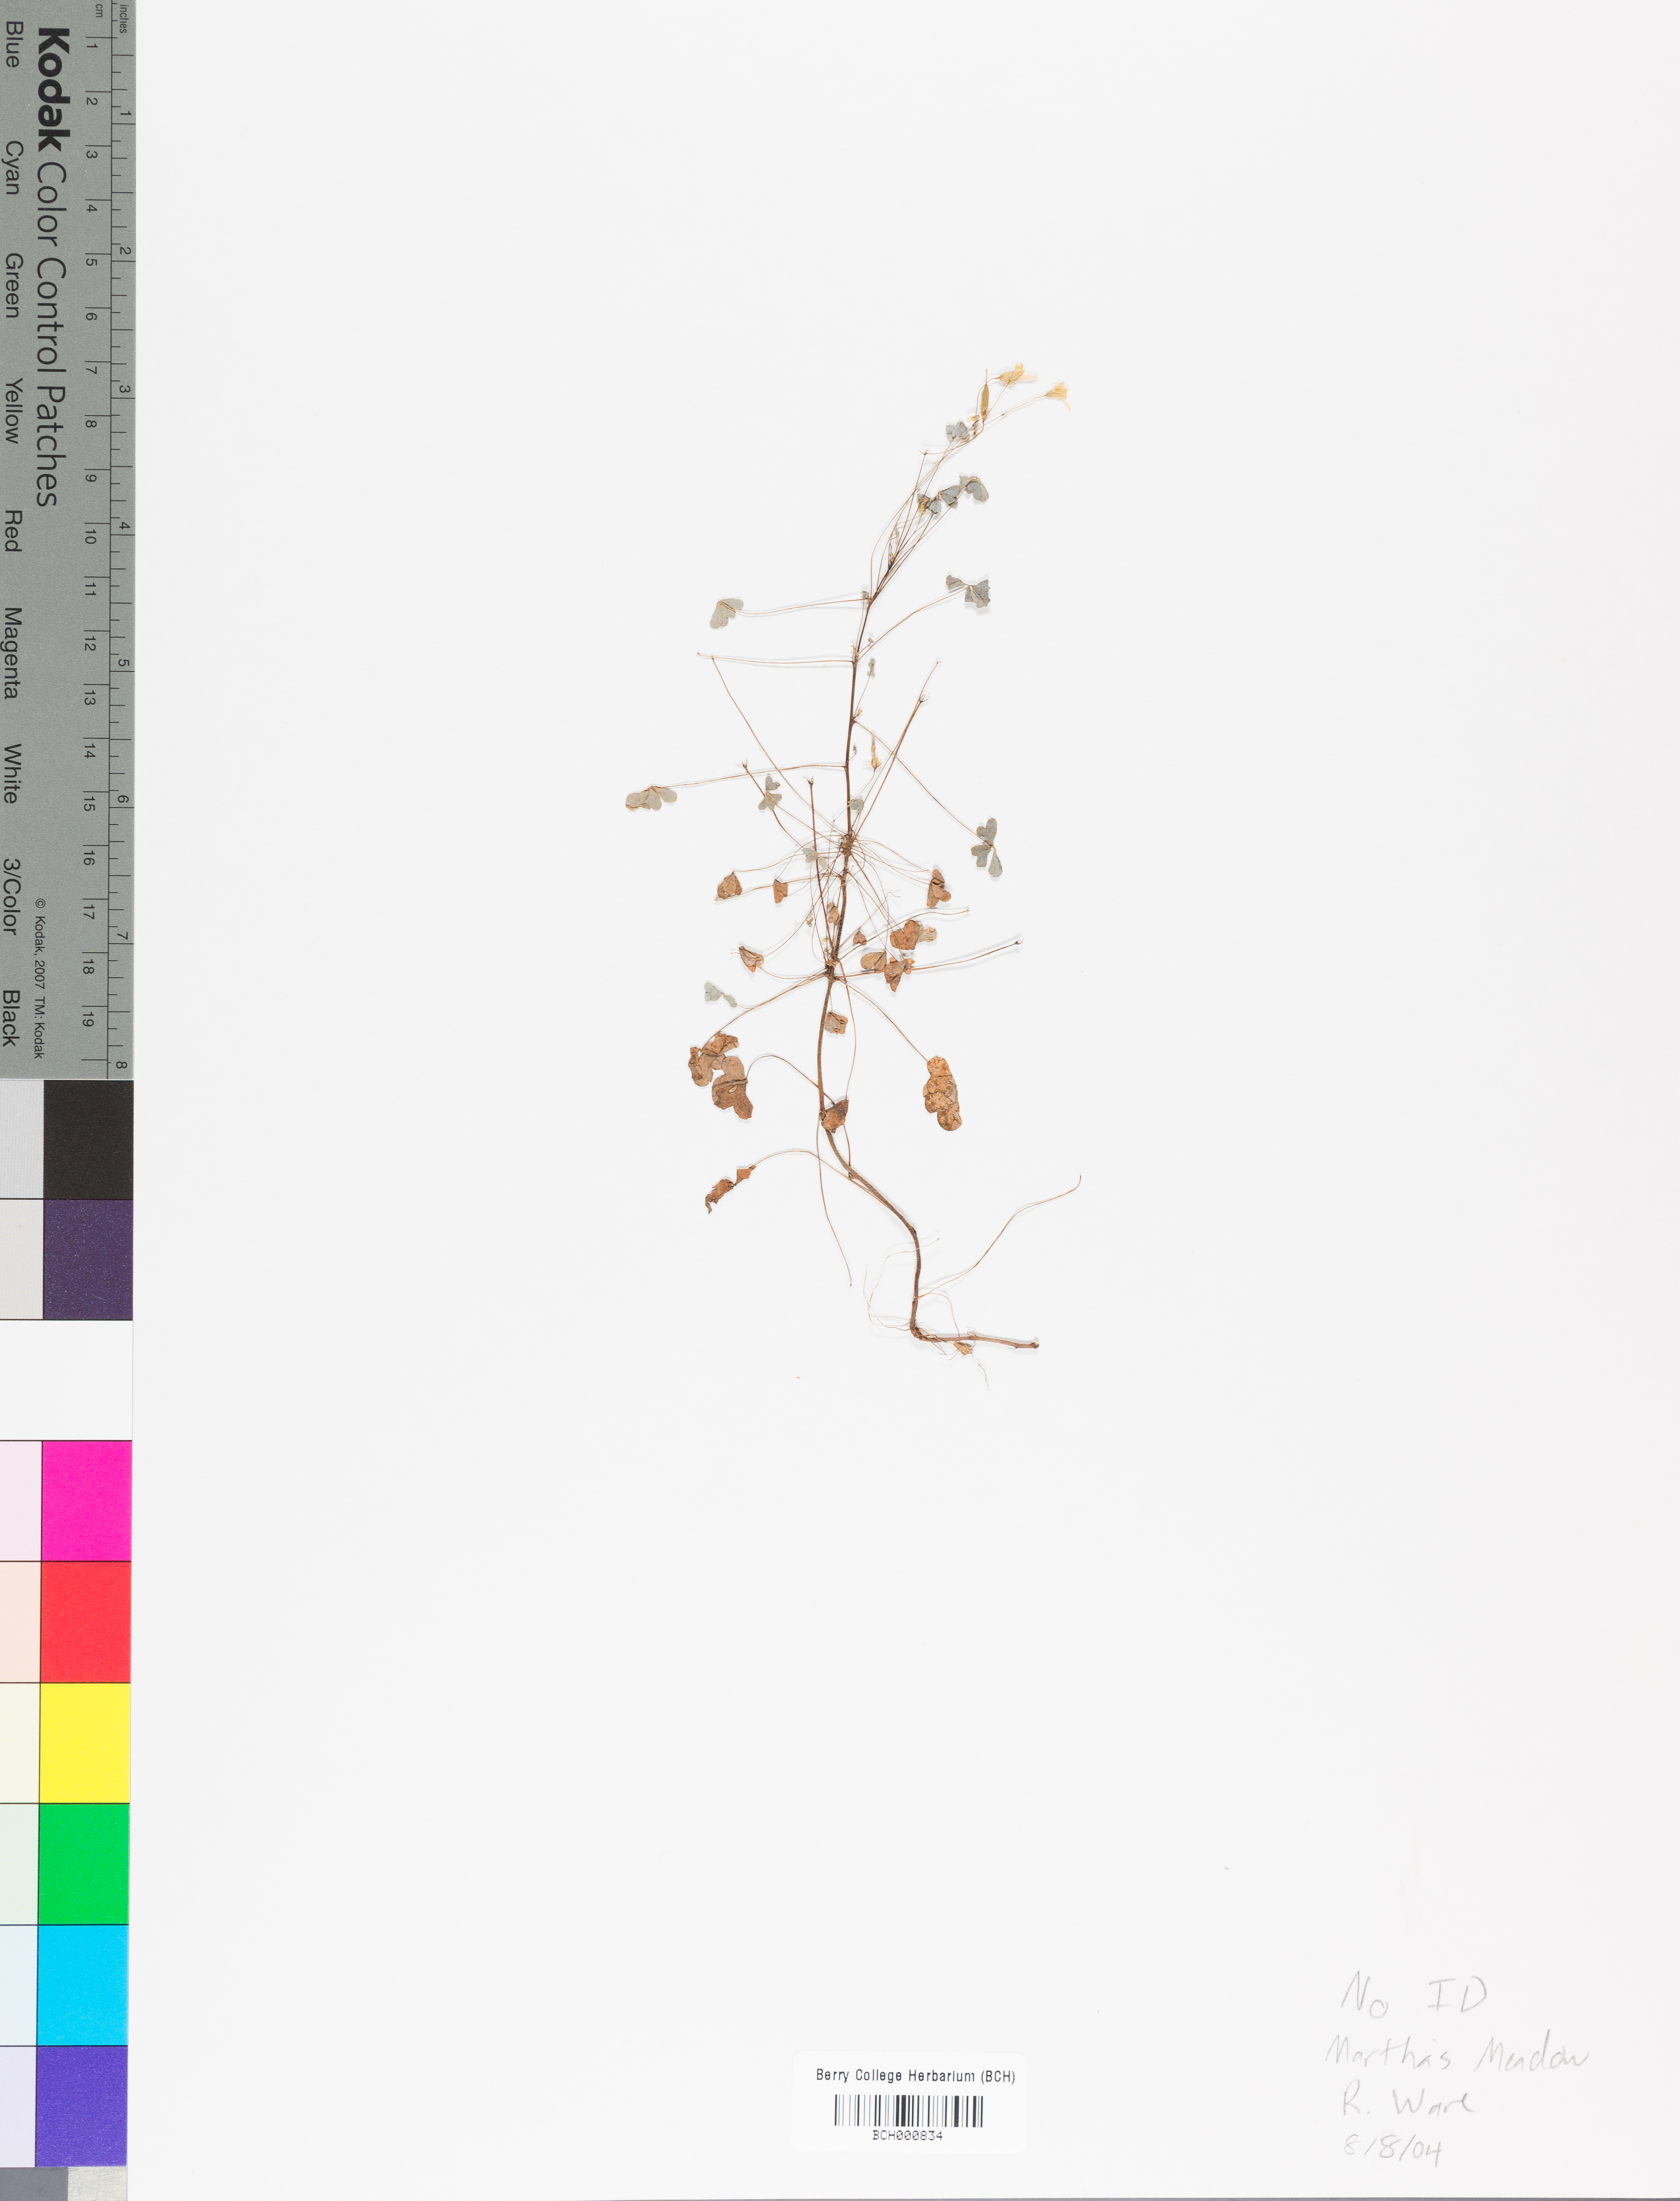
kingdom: Plantae
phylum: Tracheophyta
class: Magnoliopsida
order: Lamiales
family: Acanthaceae
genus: Adhatoda
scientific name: Adhatoda
